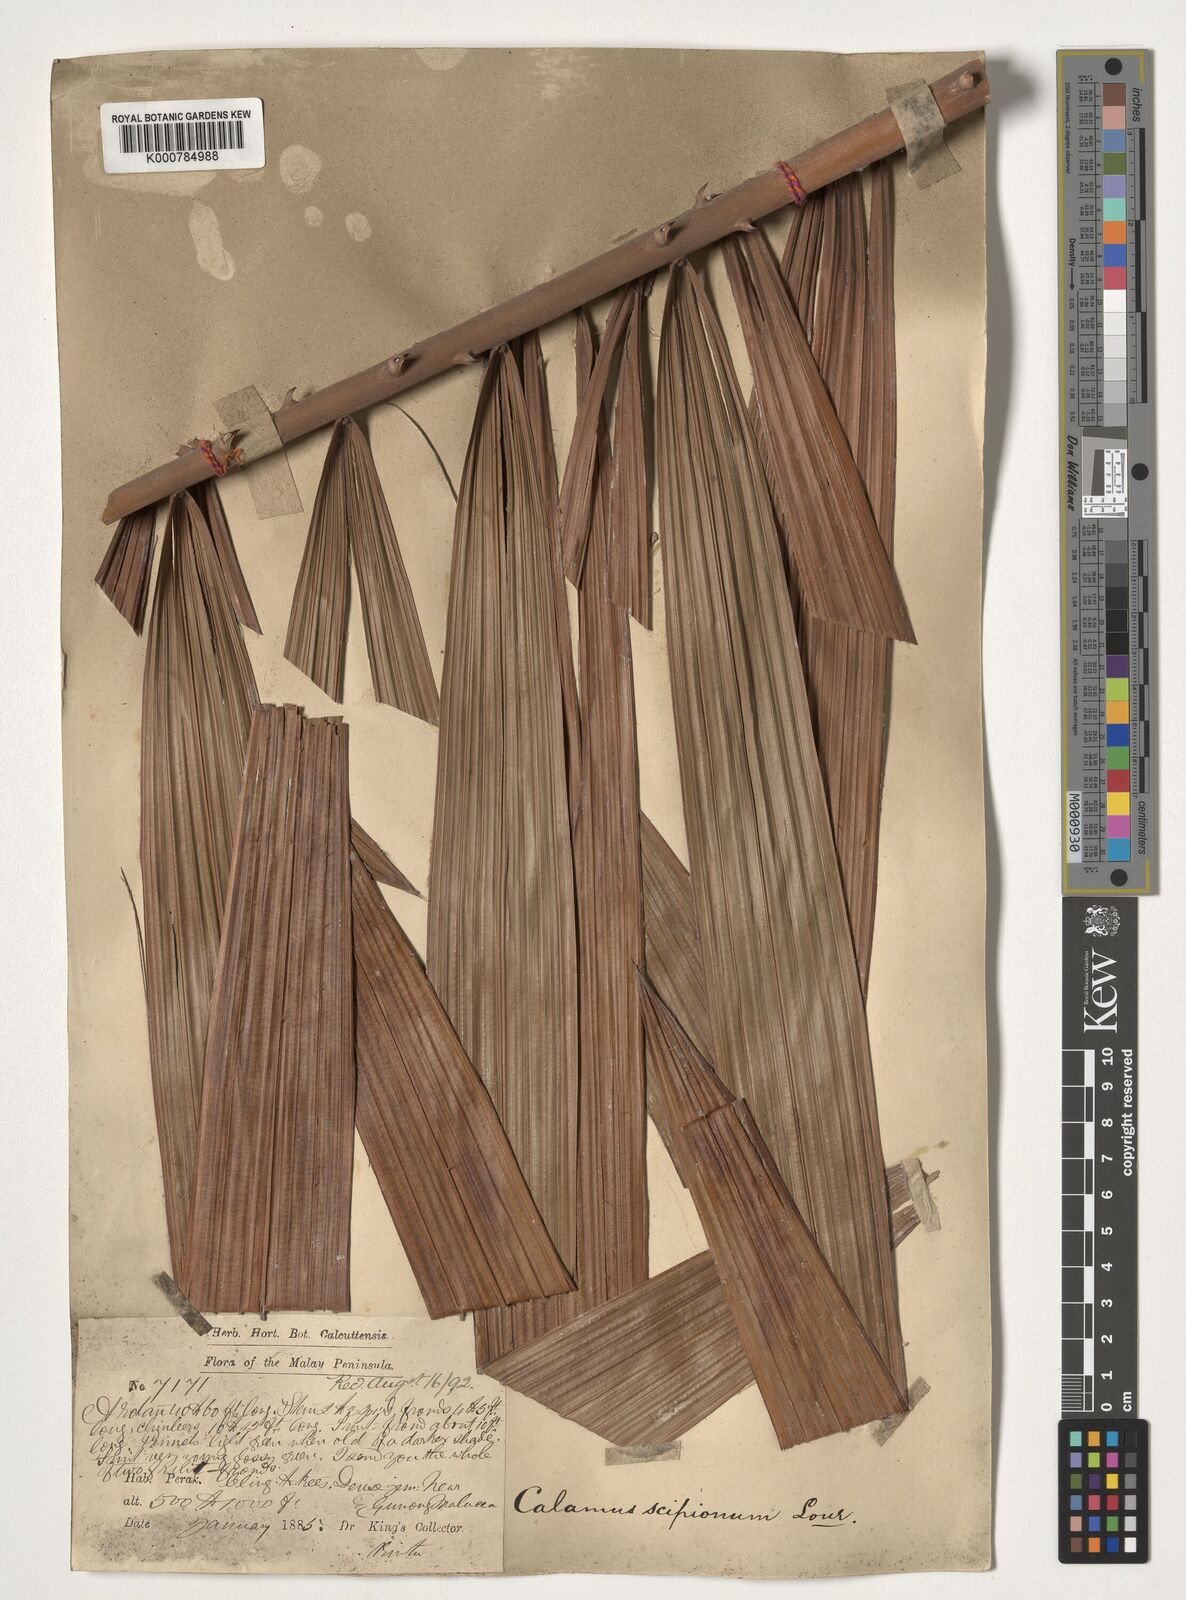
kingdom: Plantae
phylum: Tracheophyta
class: Liliopsida
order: Arecales
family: Arecaceae
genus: Calamus
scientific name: Calamus scipionum
